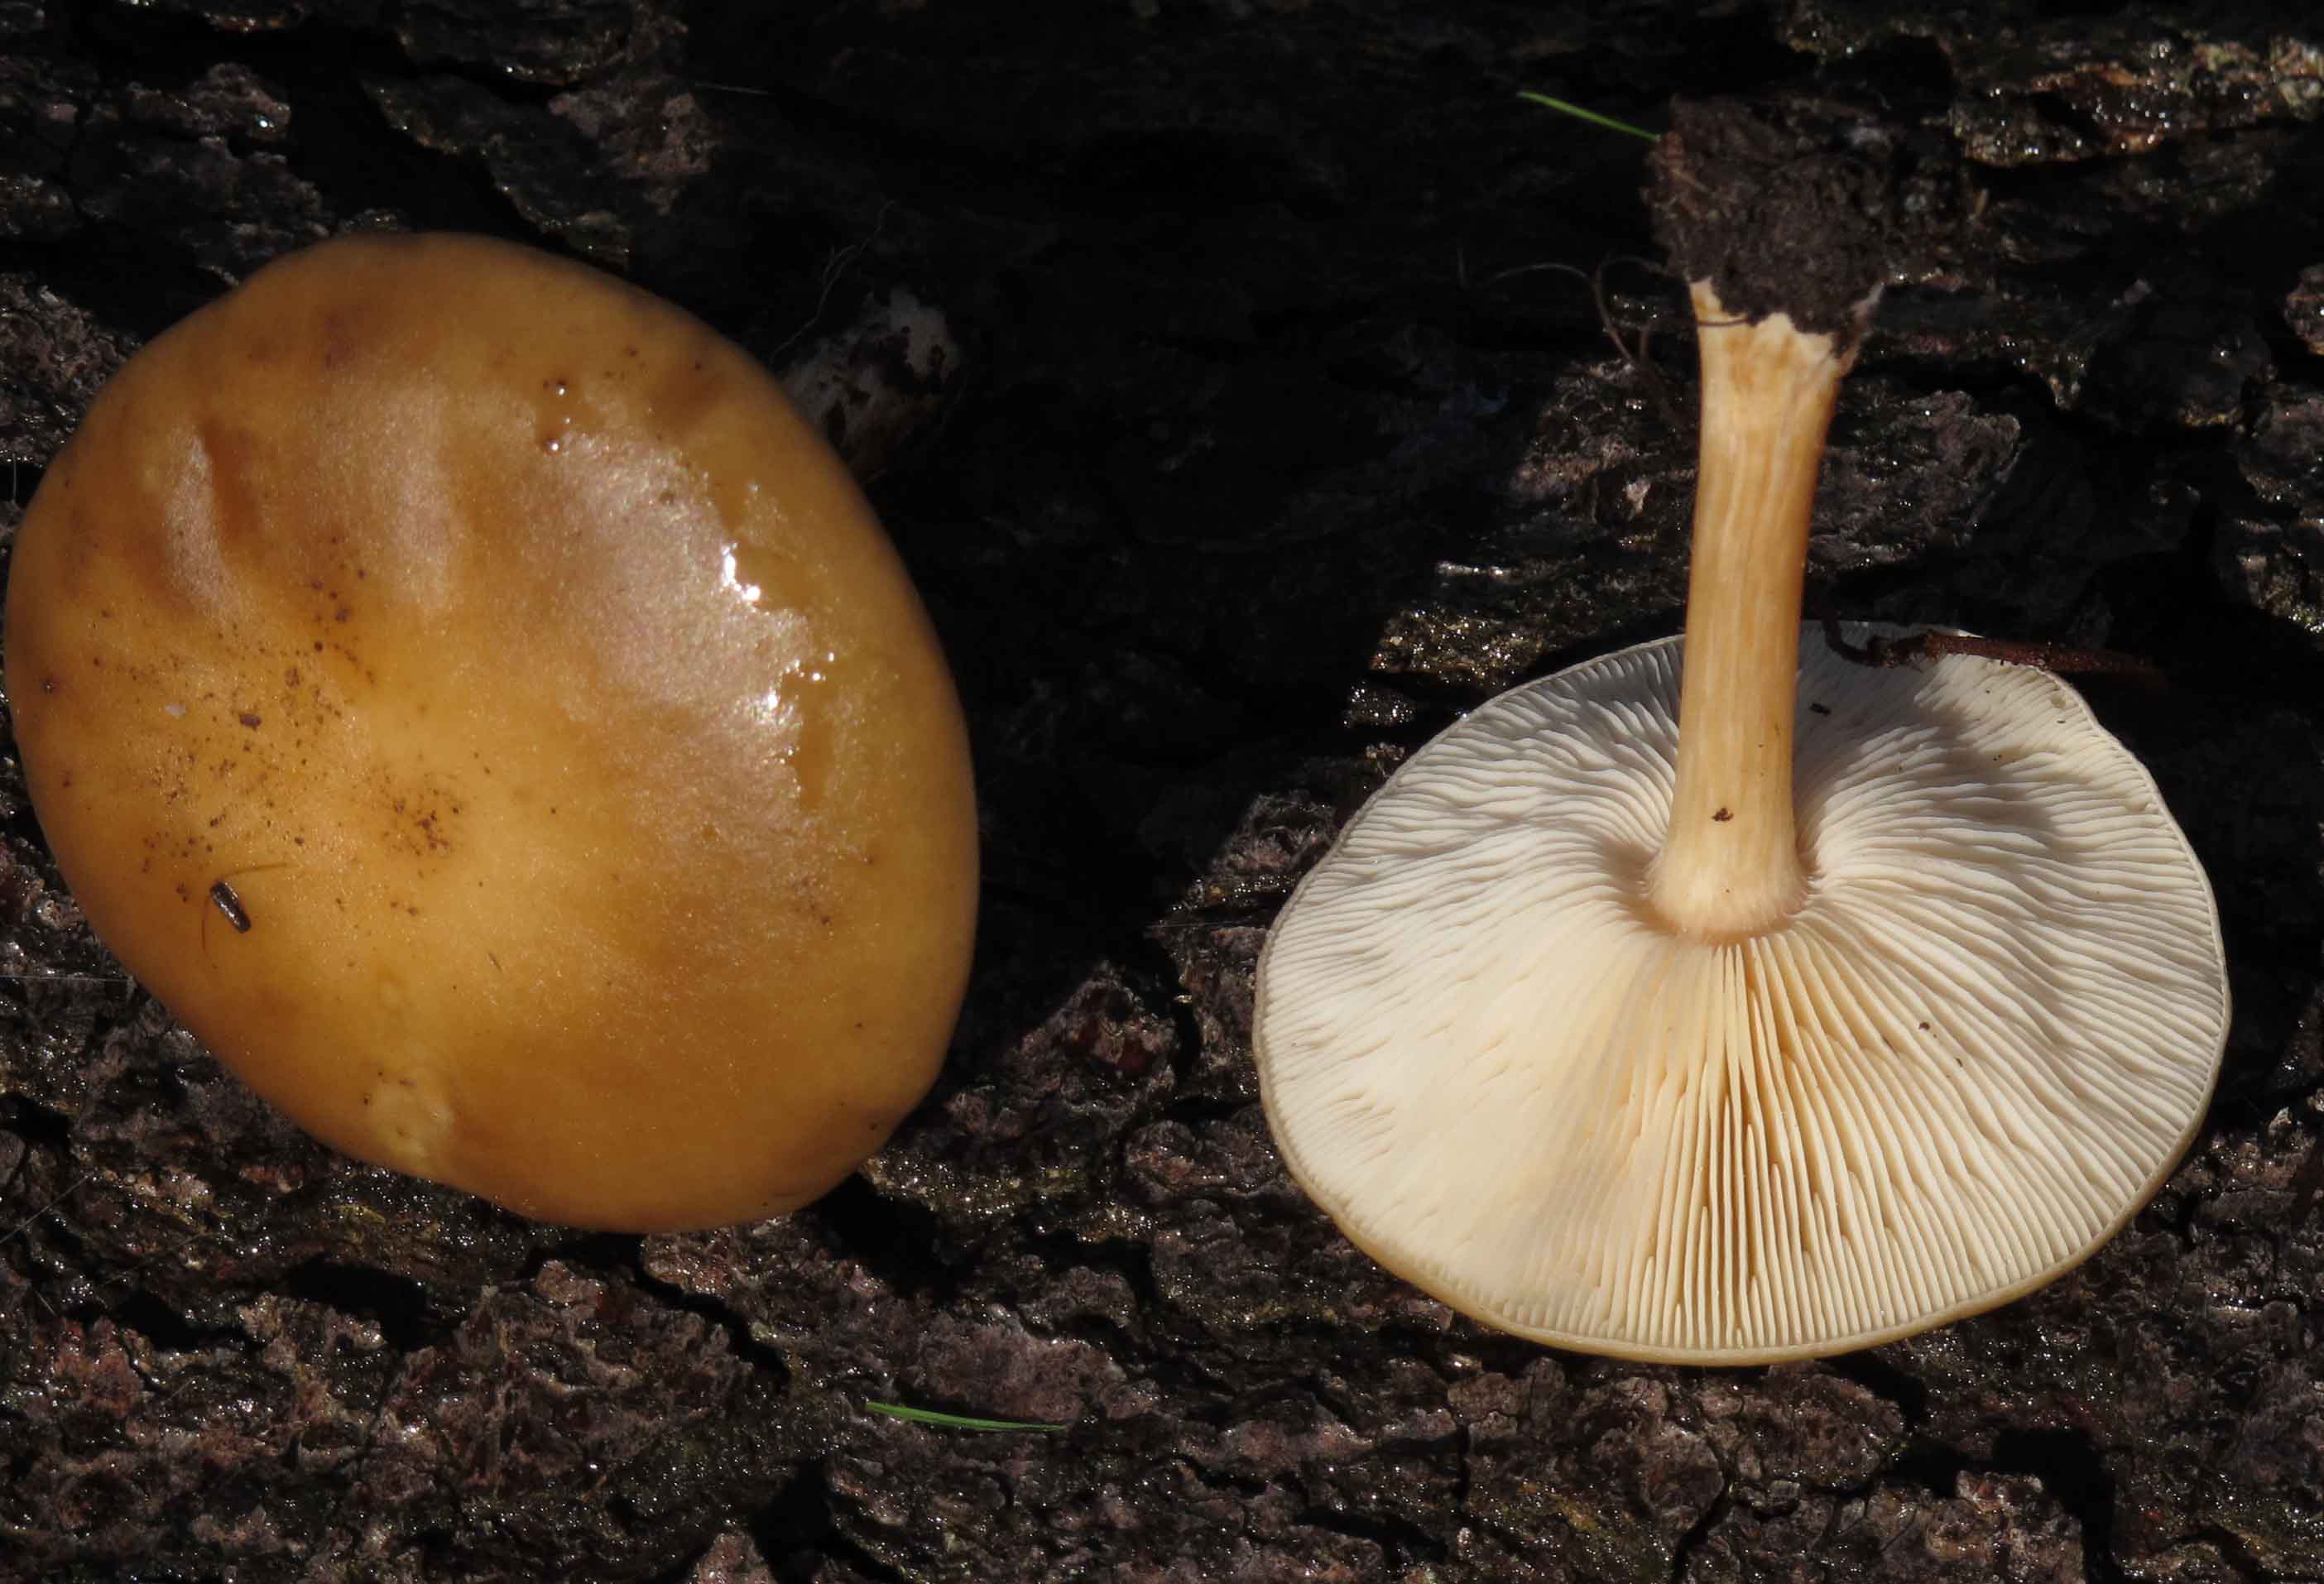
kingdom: Fungi
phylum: Basidiomycota
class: Agaricomycetes
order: Agaricales
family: Tricholomataceae
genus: Melanoleuca
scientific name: Melanoleuca cognata
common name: gyldengrå munkehat
